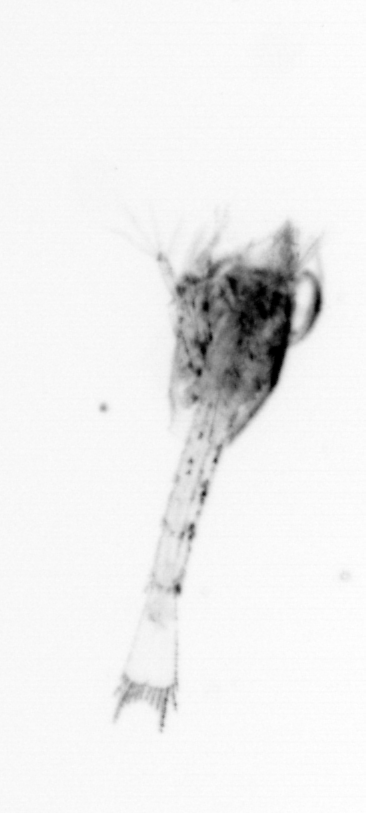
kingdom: Animalia
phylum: Arthropoda
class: Malacostraca
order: Decapoda
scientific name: Decapoda
